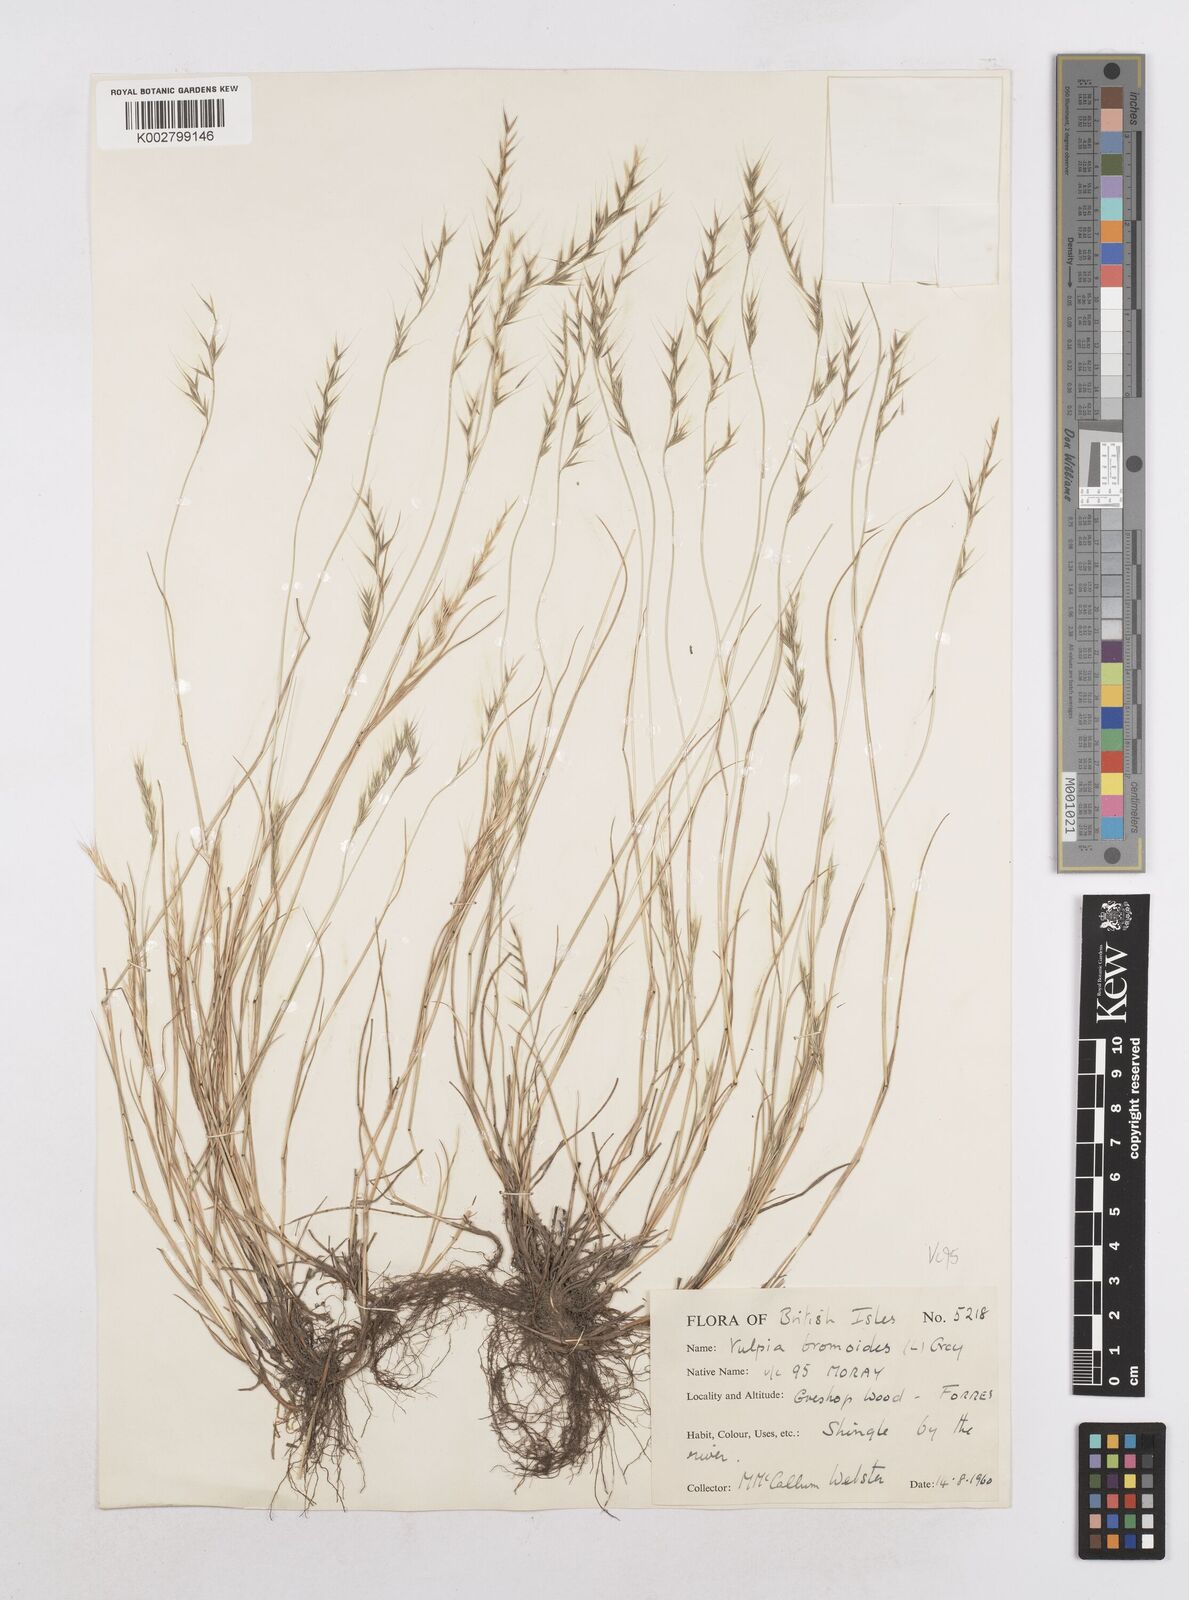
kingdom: Plantae
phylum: Tracheophyta
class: Liliopsida
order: Poales
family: Poaceae
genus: Festuca
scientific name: Festuca bromoides
